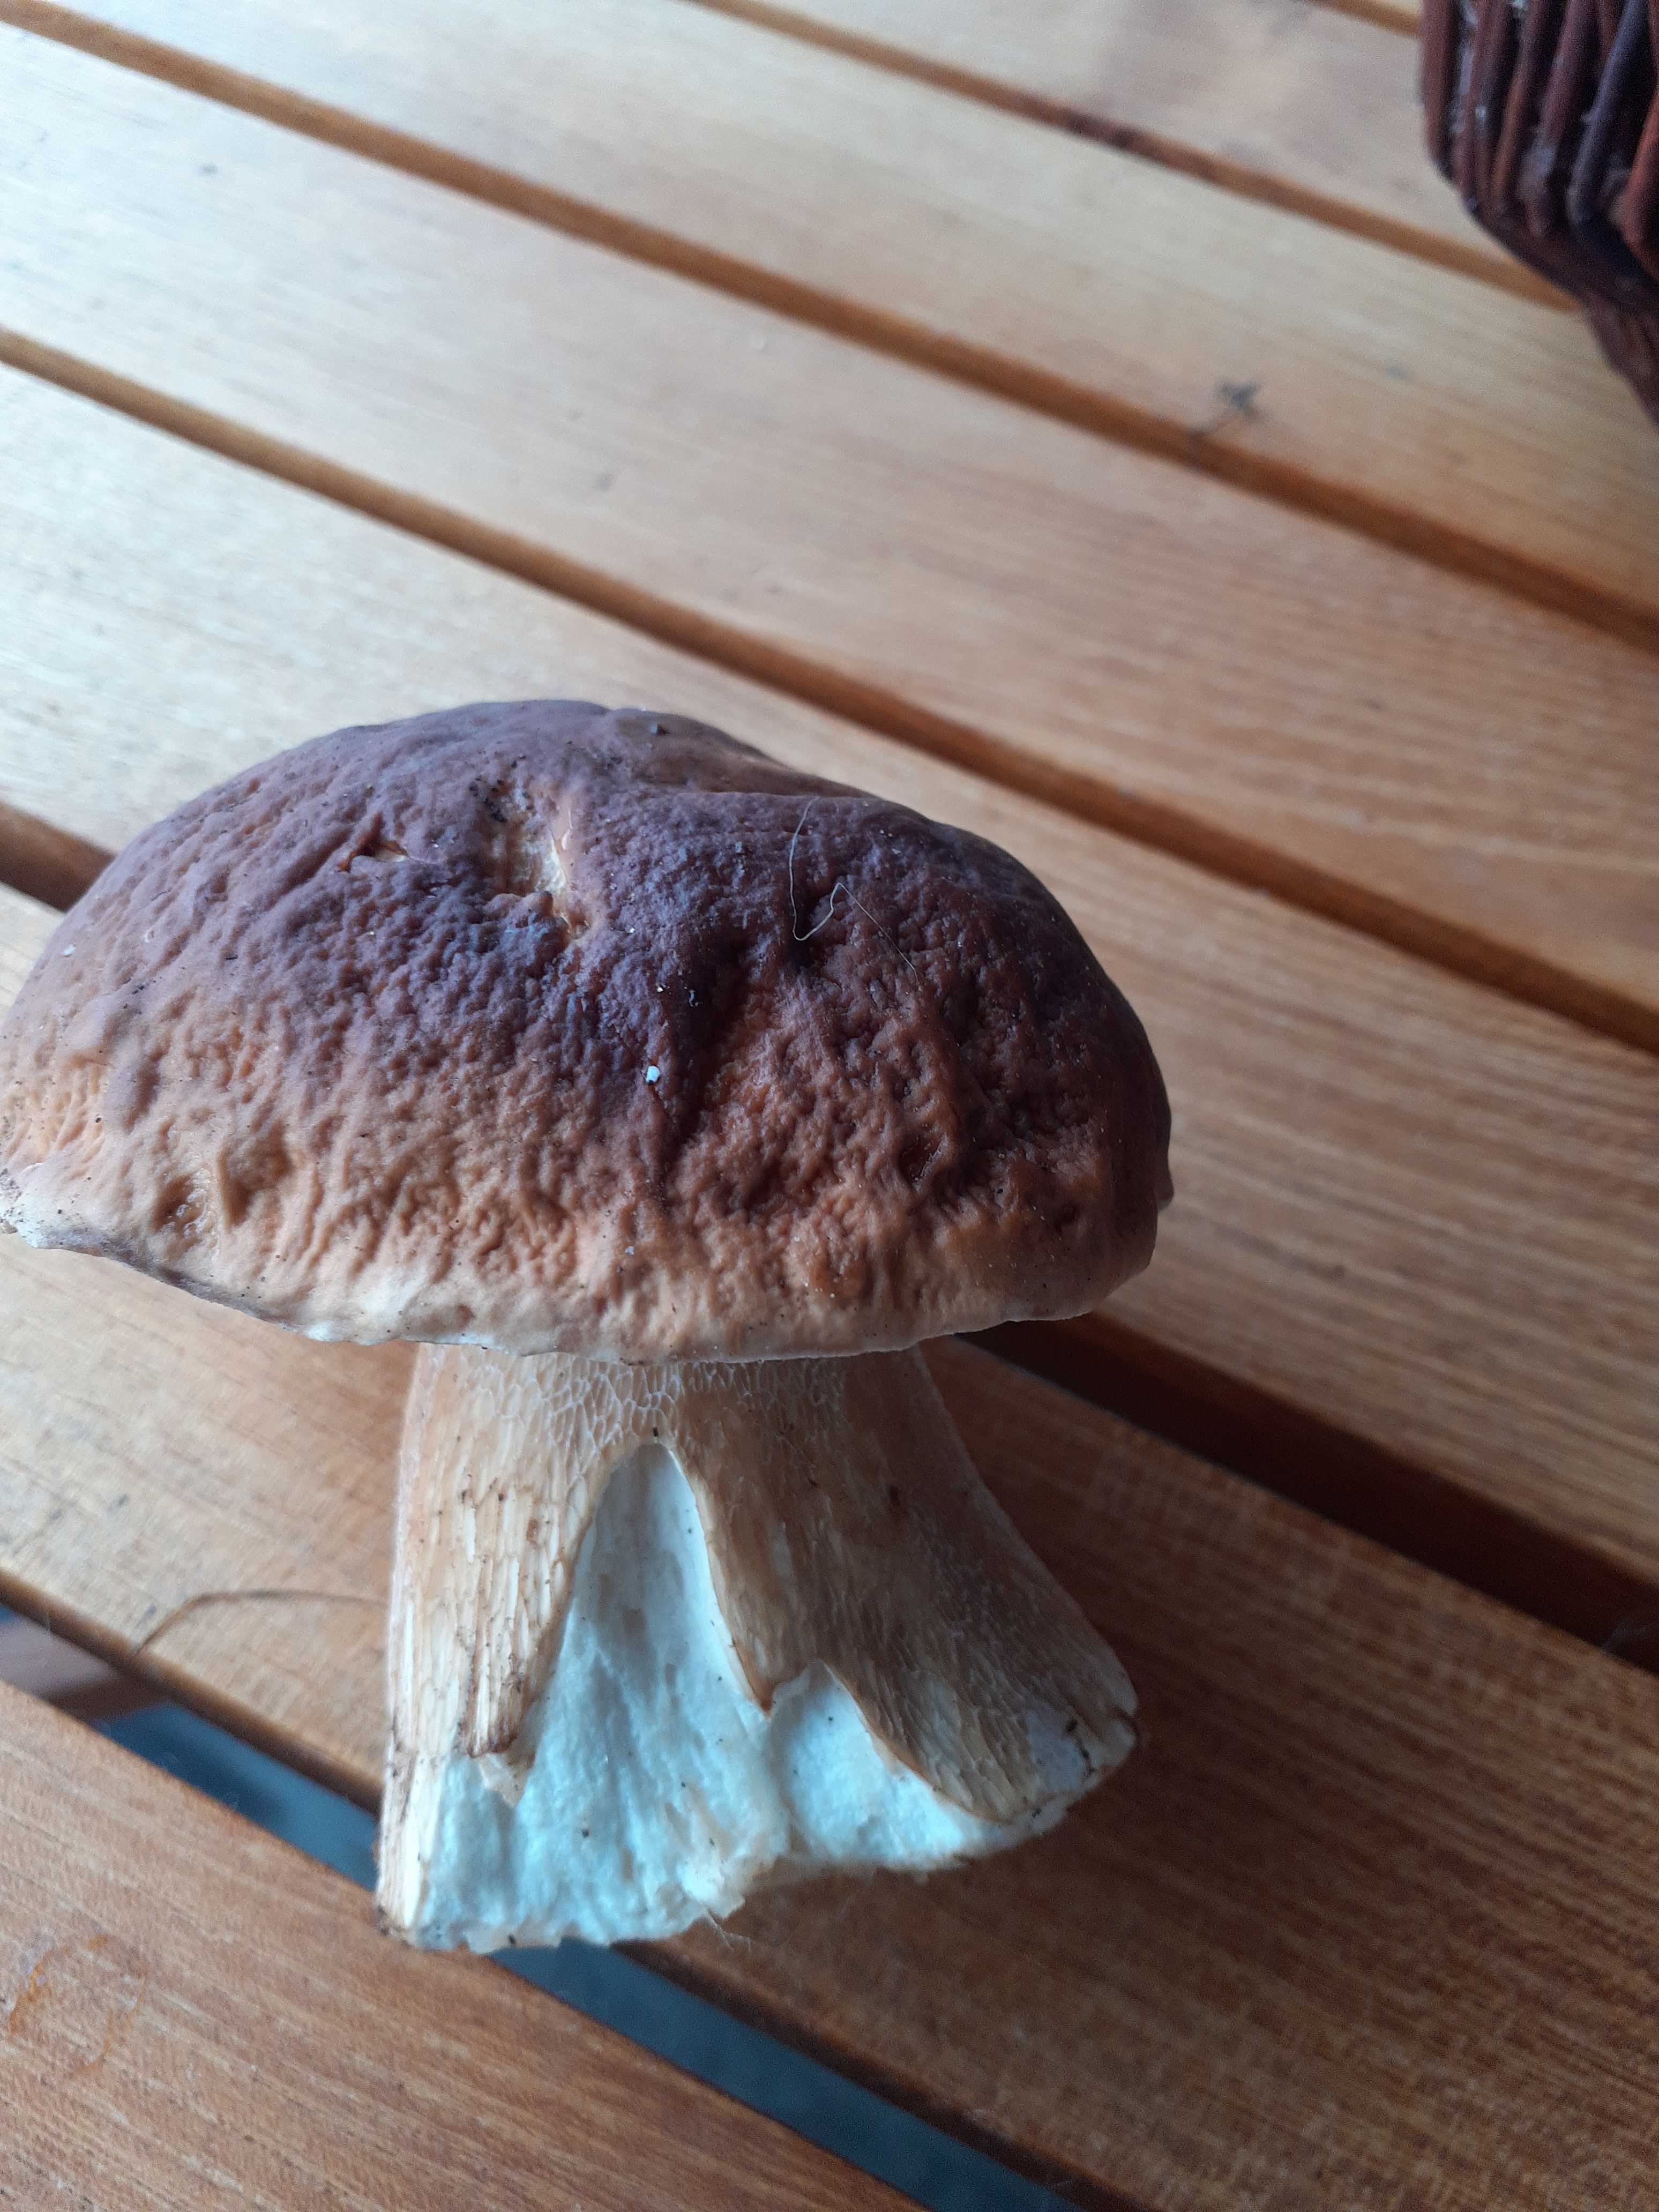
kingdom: Fungi
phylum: Basidiomycota
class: Agaricomycetes
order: Boletales
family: Boletaceae
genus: Boletus
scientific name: Boletus edulis
